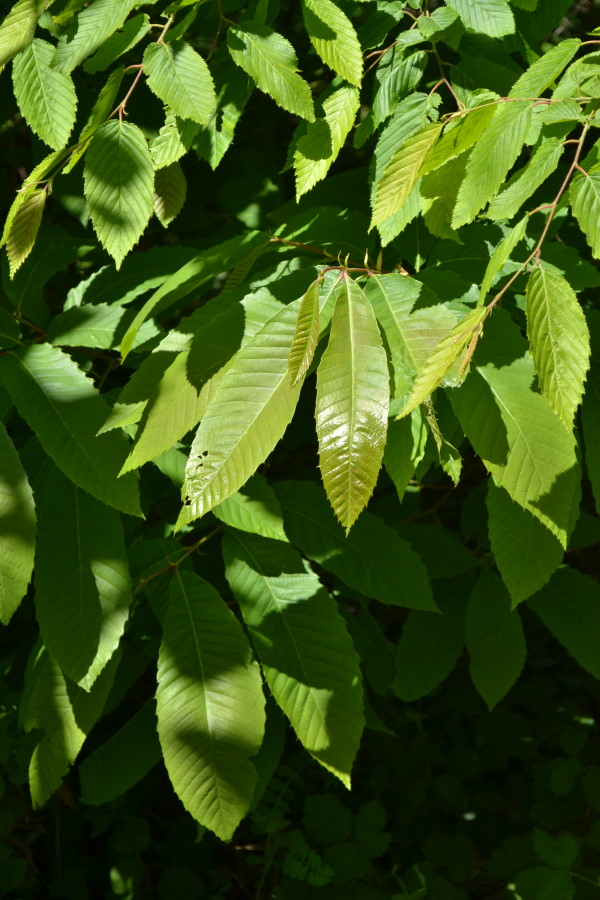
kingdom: Plantae
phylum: Tracheophyta
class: Magnoliopsida
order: Fagales
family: Fagaceae
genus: Fagus
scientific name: Fagus orientalis
